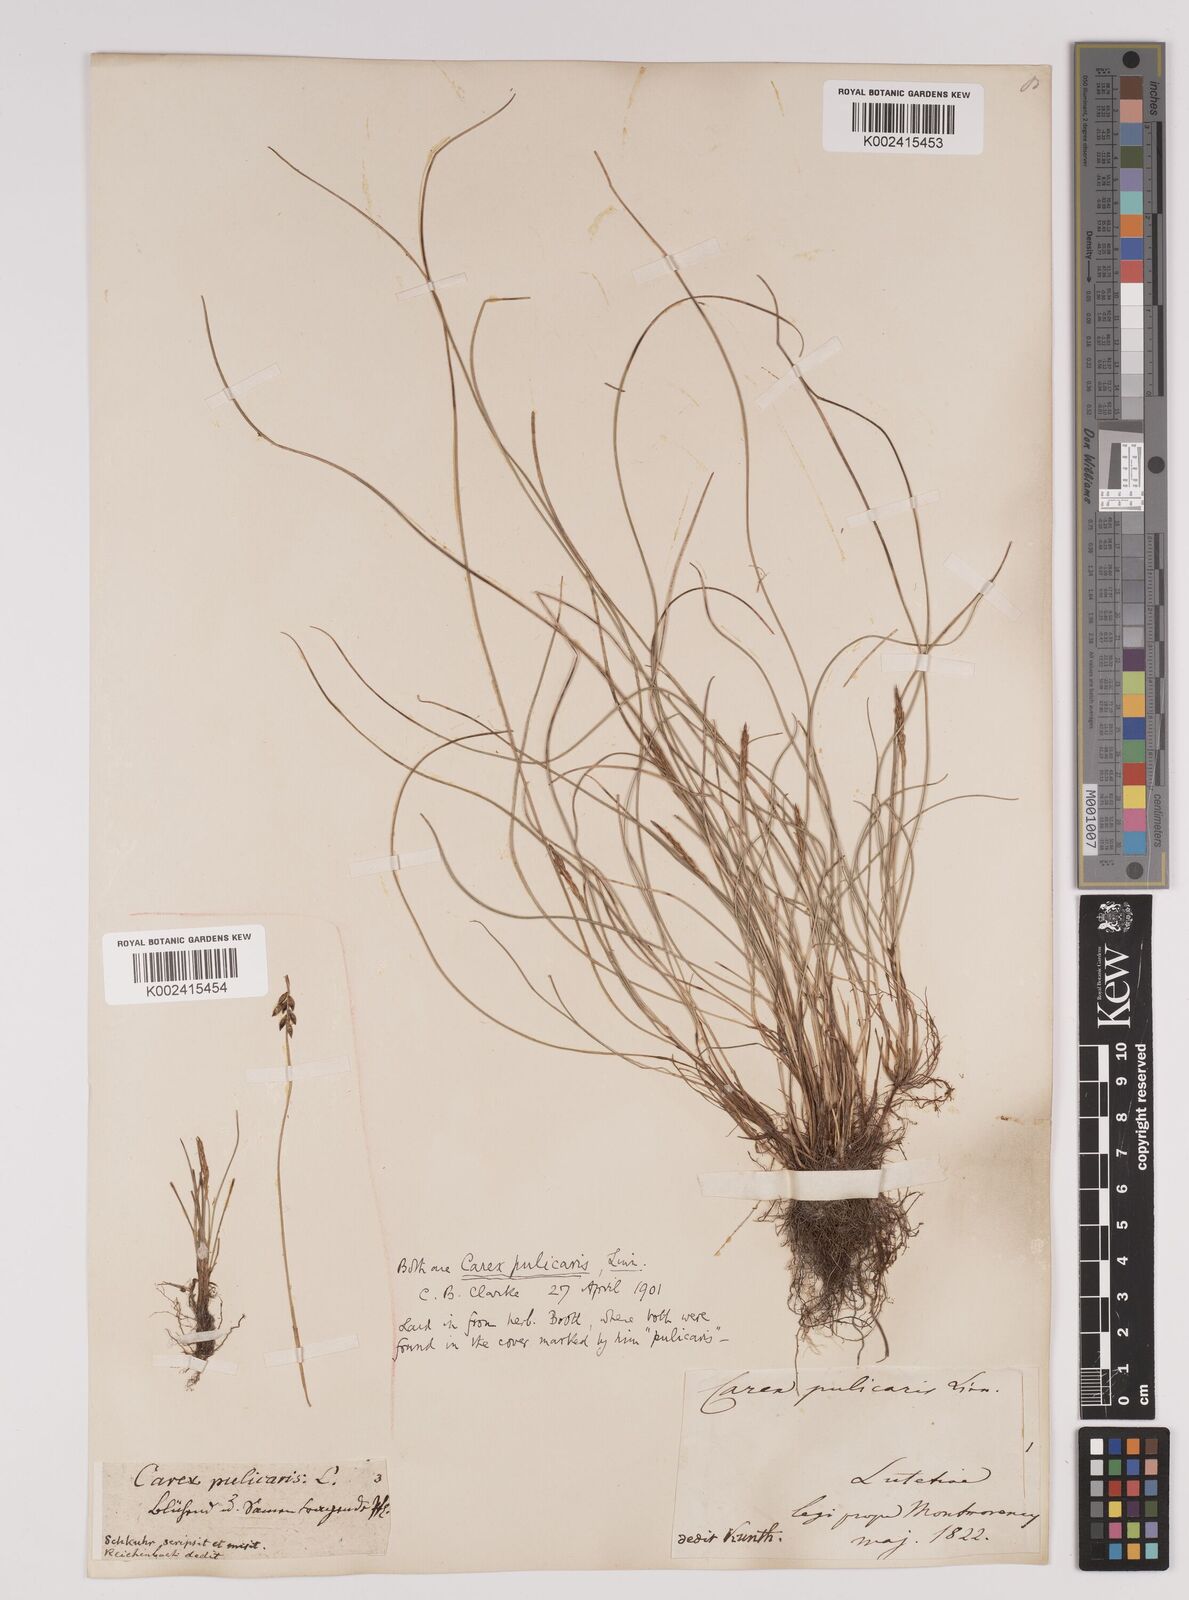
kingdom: Plantae
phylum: Tracheophyta
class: Liliopsida
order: Poales
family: Cyperaceae
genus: Carex
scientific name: Carex pulicaris
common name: Flea sedge
